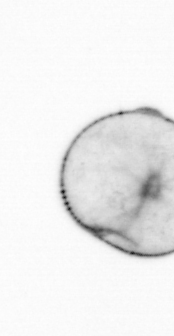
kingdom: Chromista
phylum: Myzozoa
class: Dinophyceae
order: Noctilucales
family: Noctilucaceae
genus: Noctiluca
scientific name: Noctiluca scintillans
